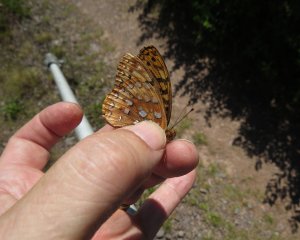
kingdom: Animalia
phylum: Arthropoda
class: Insecta
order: Lepidoptera
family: Nymphalidae
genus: Speyeria
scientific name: Speyeria cybele
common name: Great Spangled Fritillary
